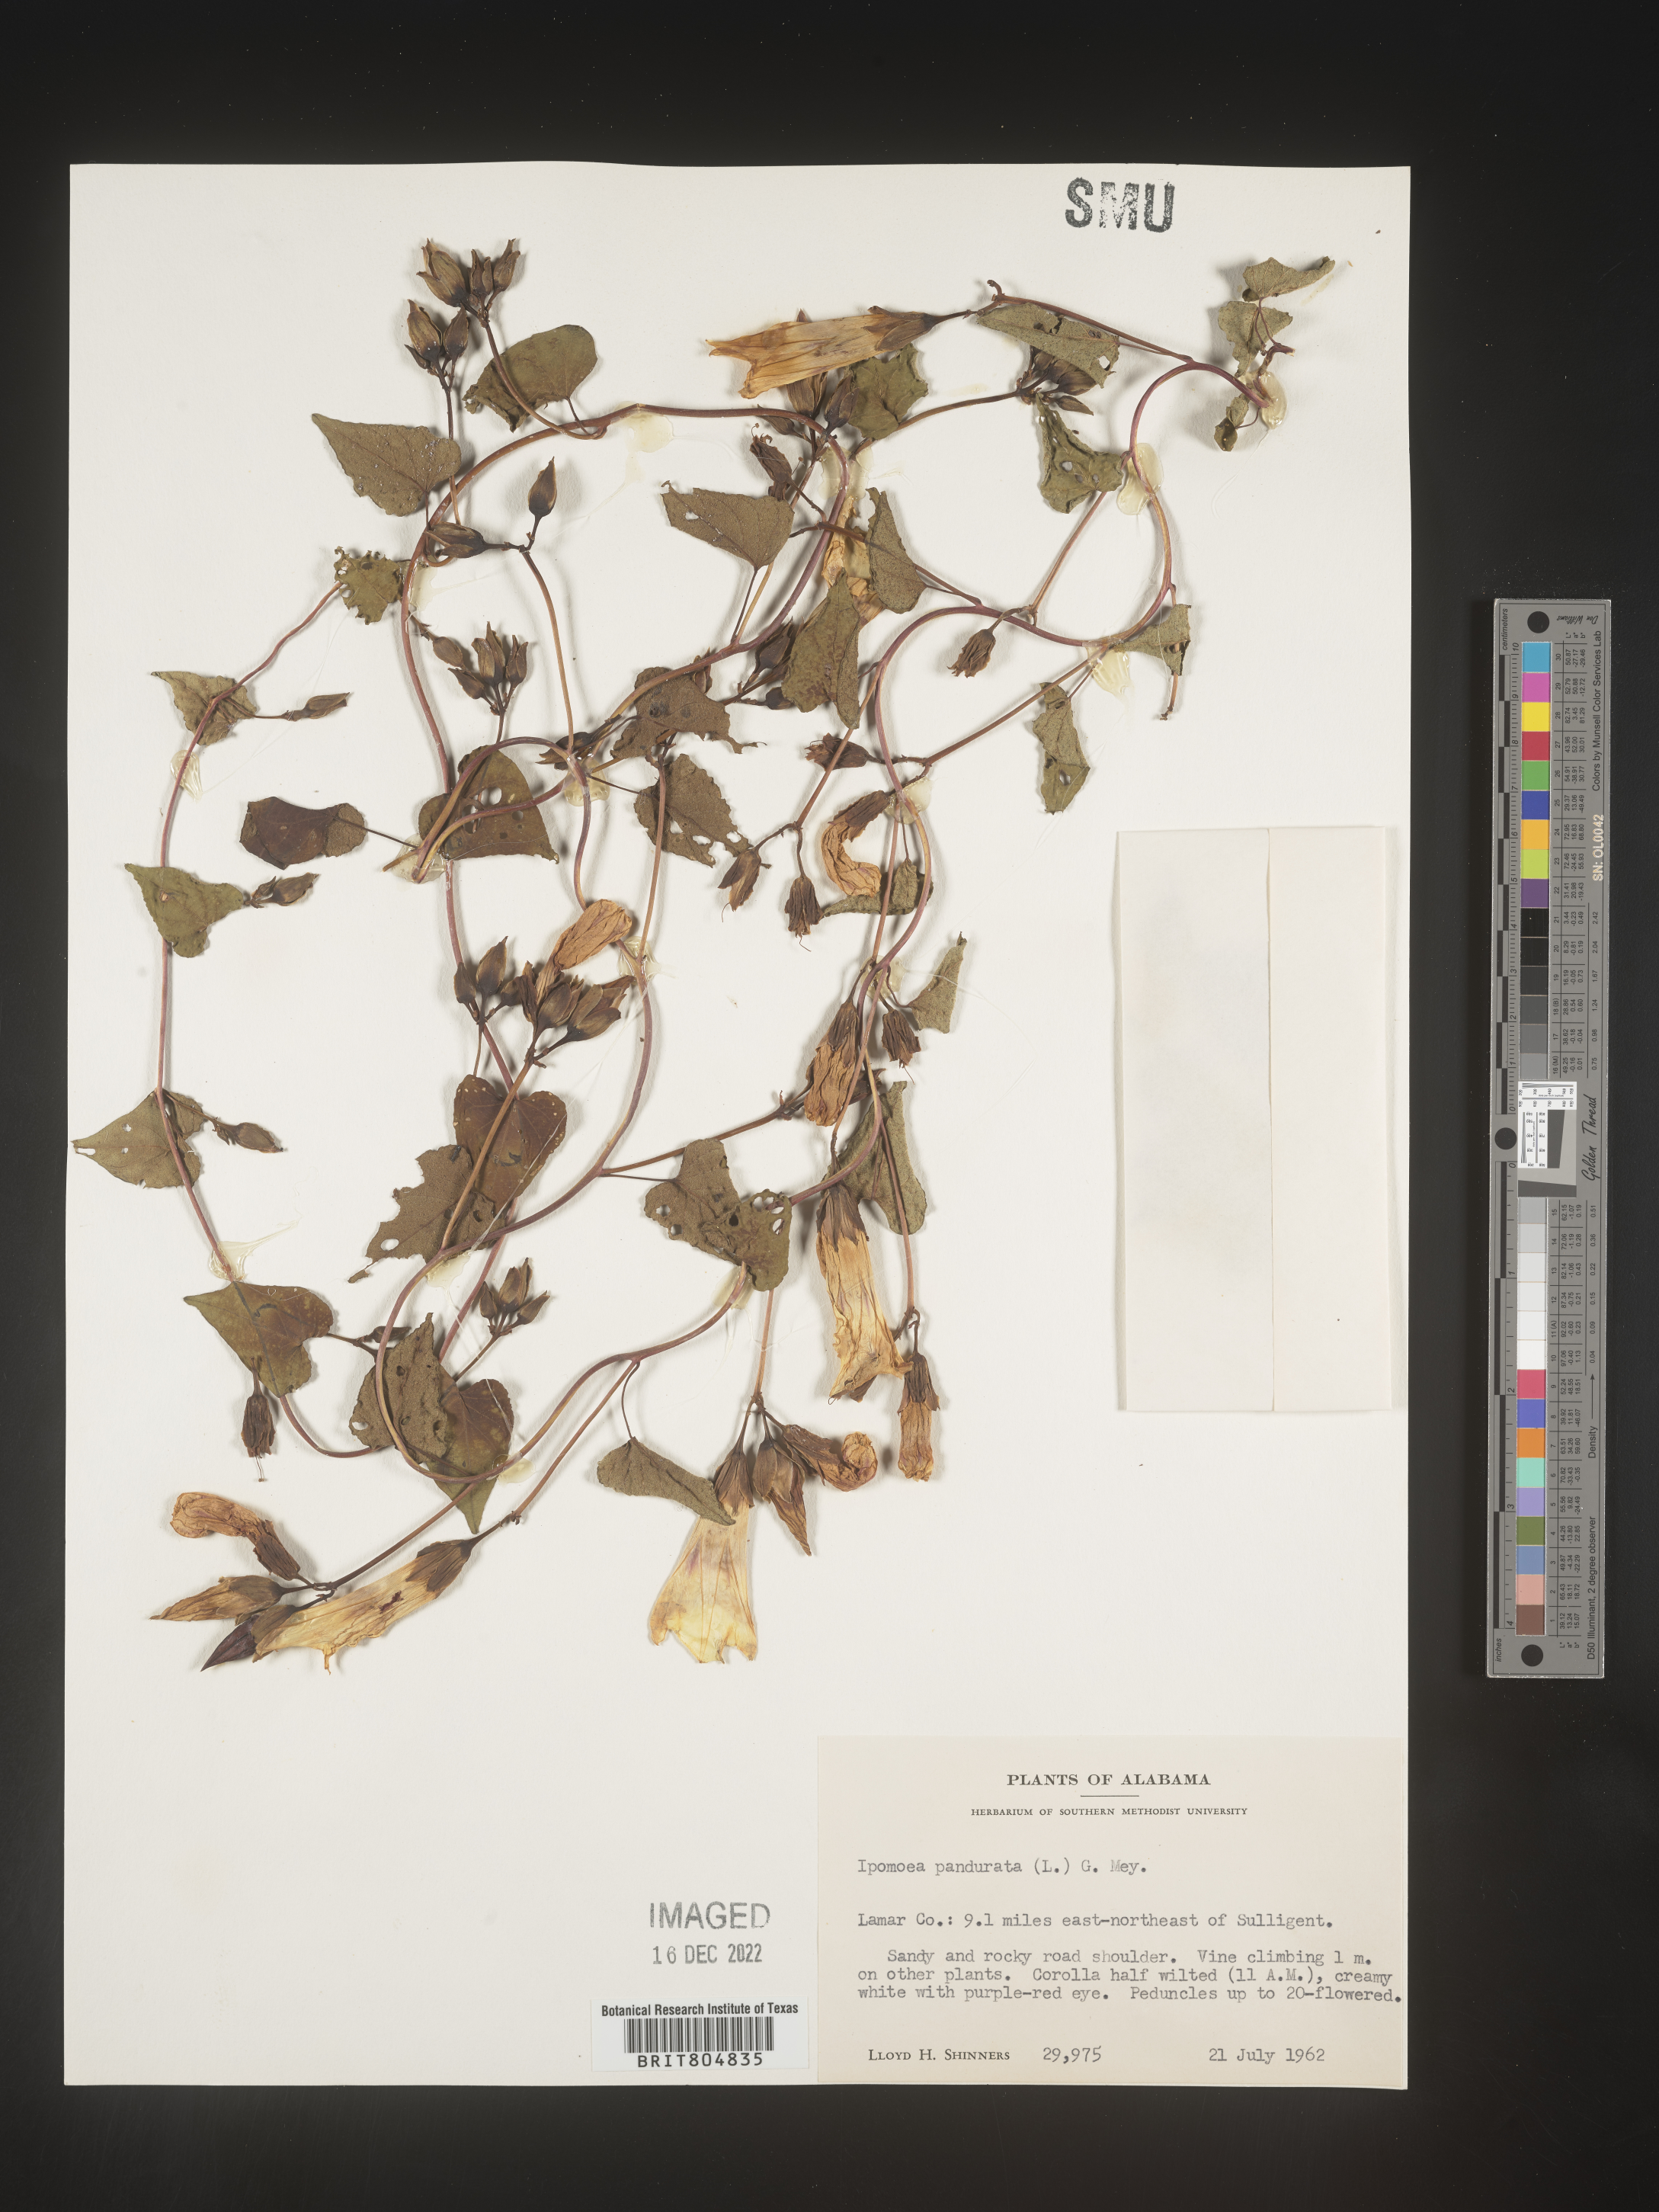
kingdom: Plantae
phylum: Tracheophyta
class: Magnoliopsida
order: Solanales
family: Convolvulaceae
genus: Ipomoea
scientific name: Ipomoea pandurata
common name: Man-of-the-earth
